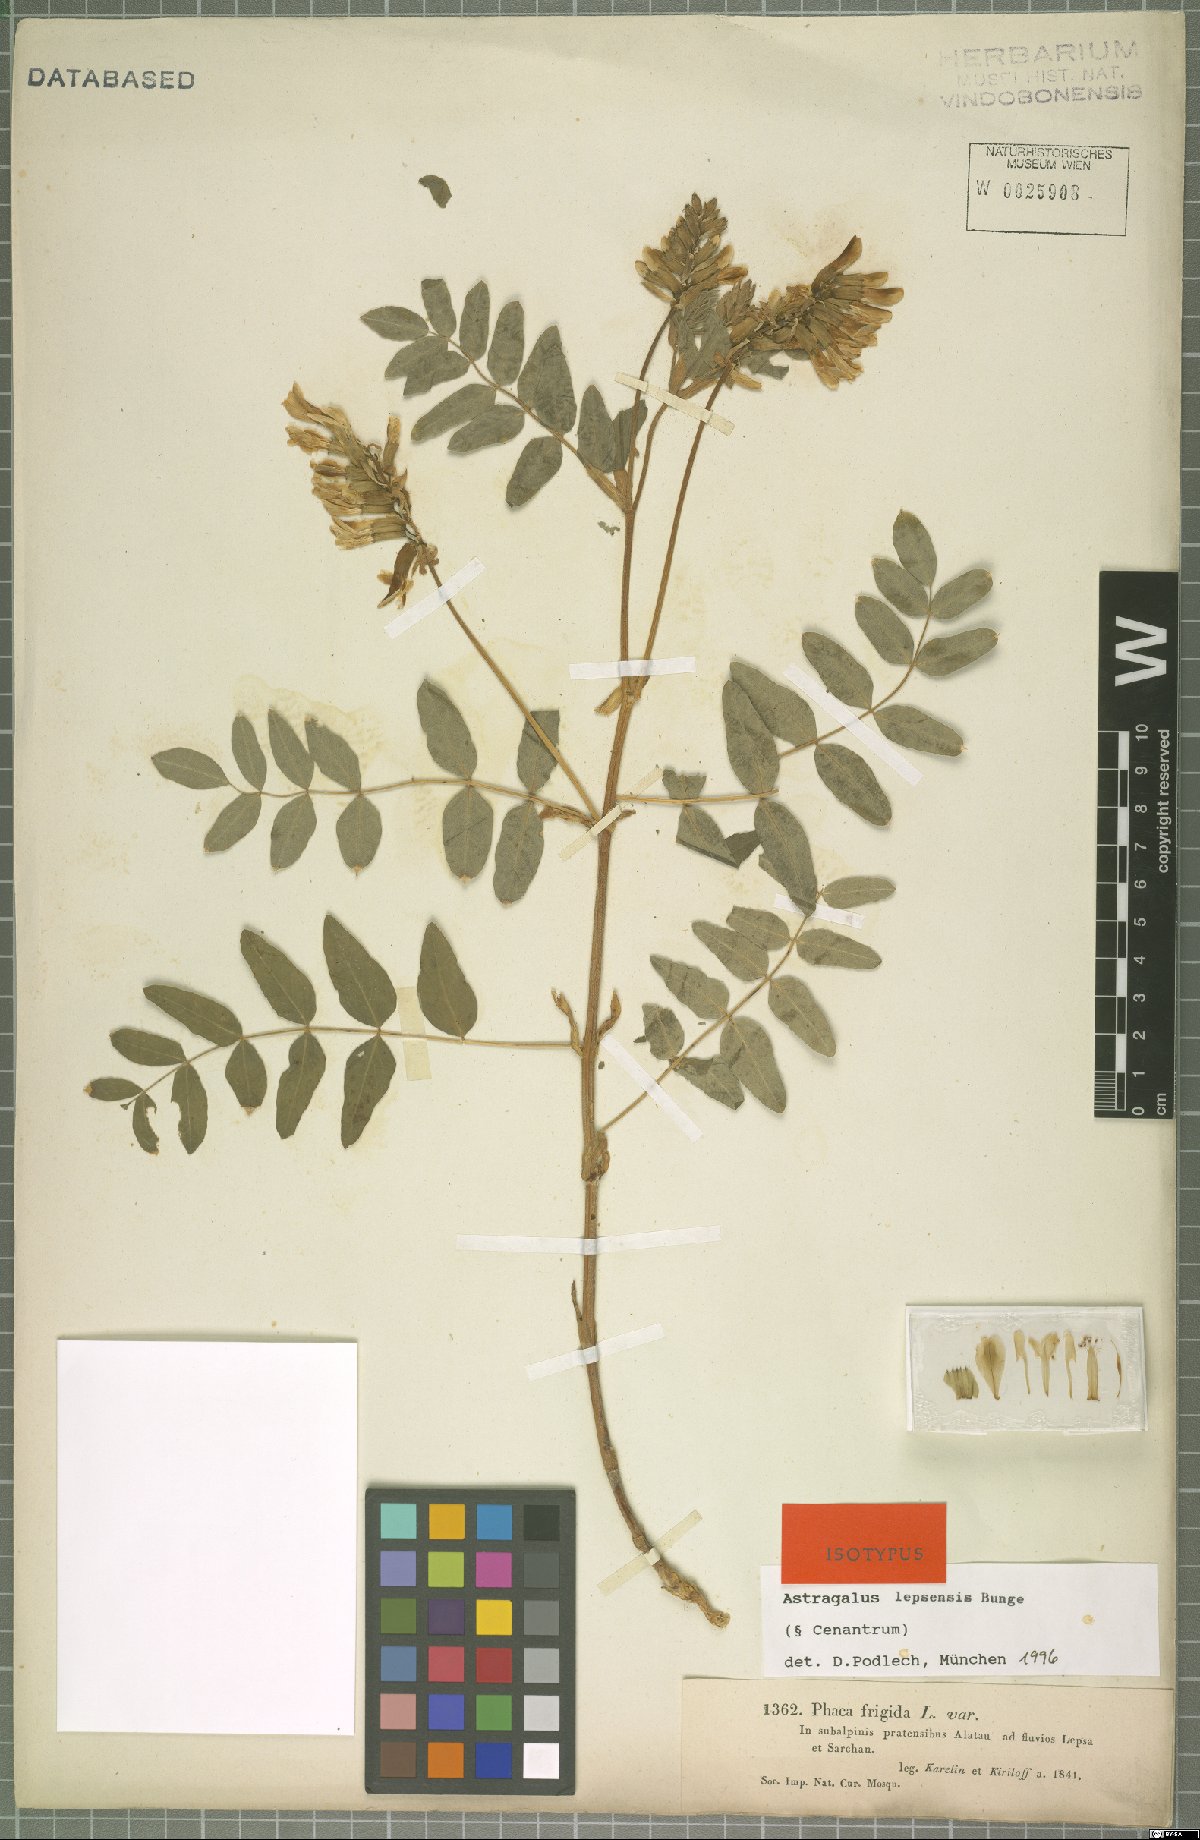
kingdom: Plantae
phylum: Tracheophyta
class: Magnoliopsida
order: Fabales
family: Fabaceae
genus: Astragalus
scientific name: Astragalus lepsensis
